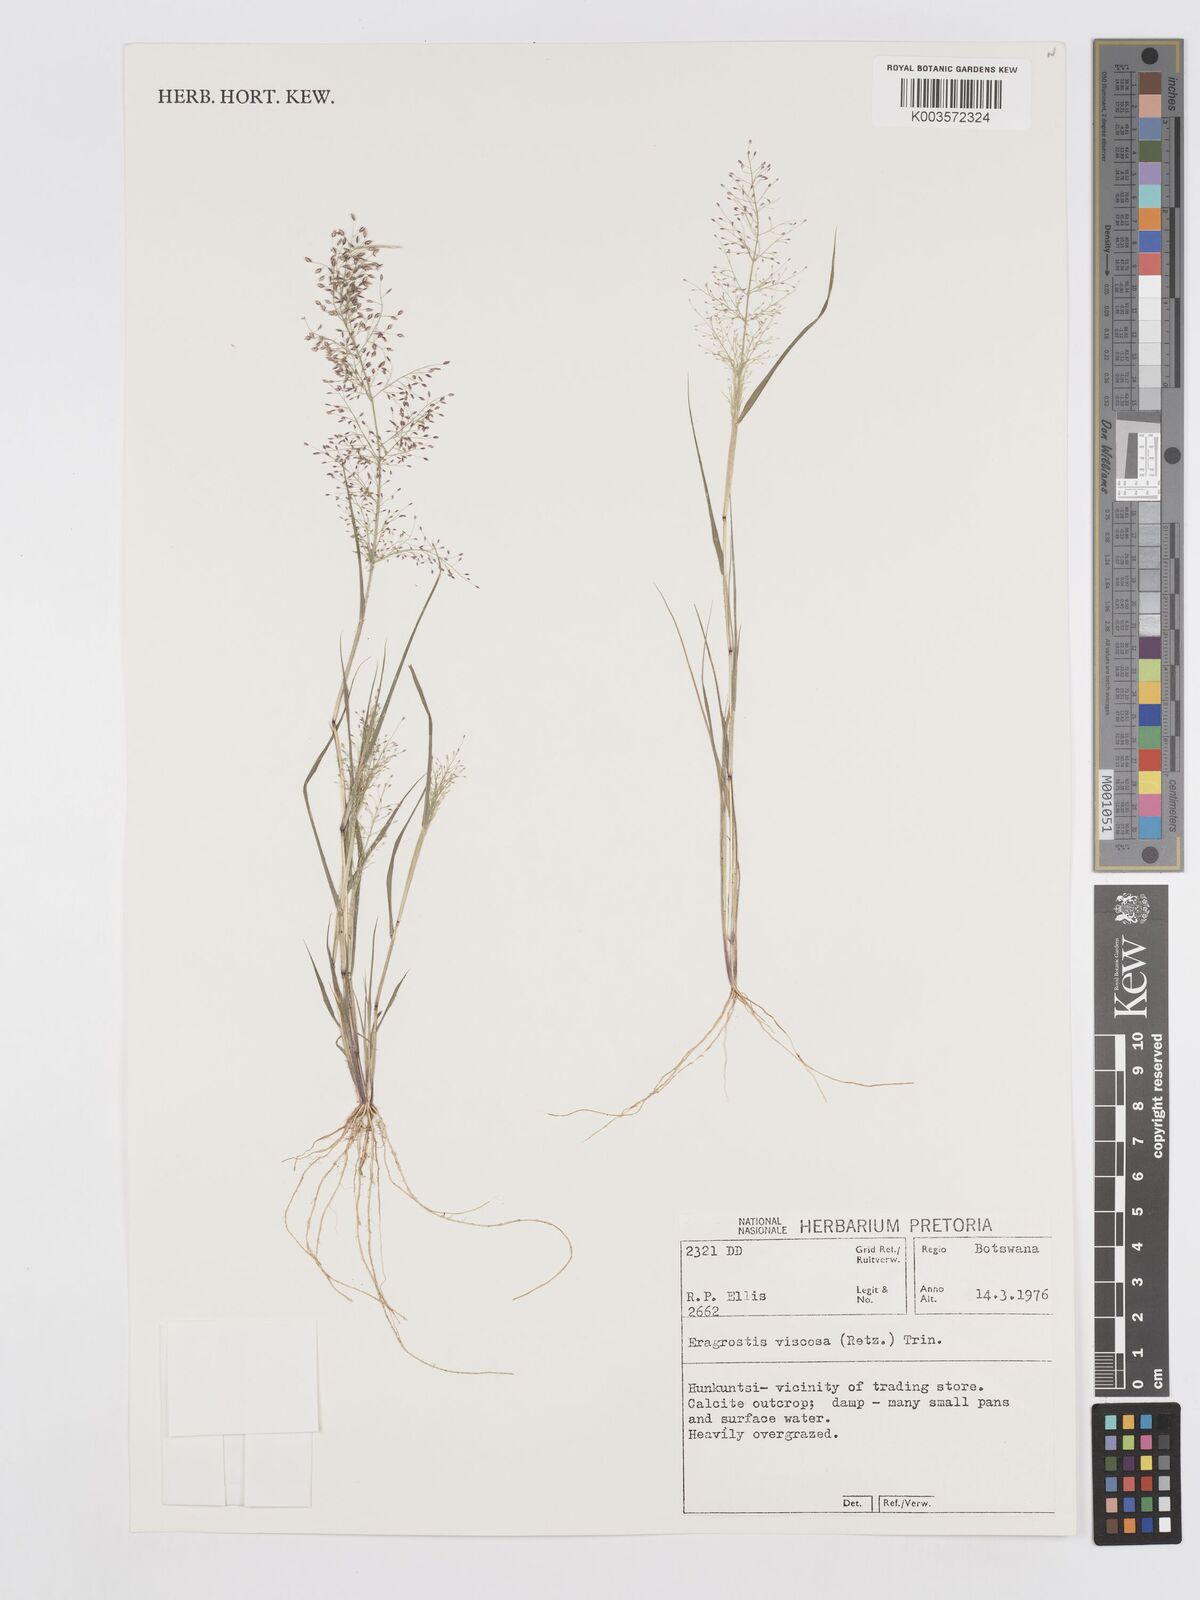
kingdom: Plantae
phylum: Tracheophyta
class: Liliopsida
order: Poales
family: Poaceae
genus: Eragrostis
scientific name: Eragrostis
